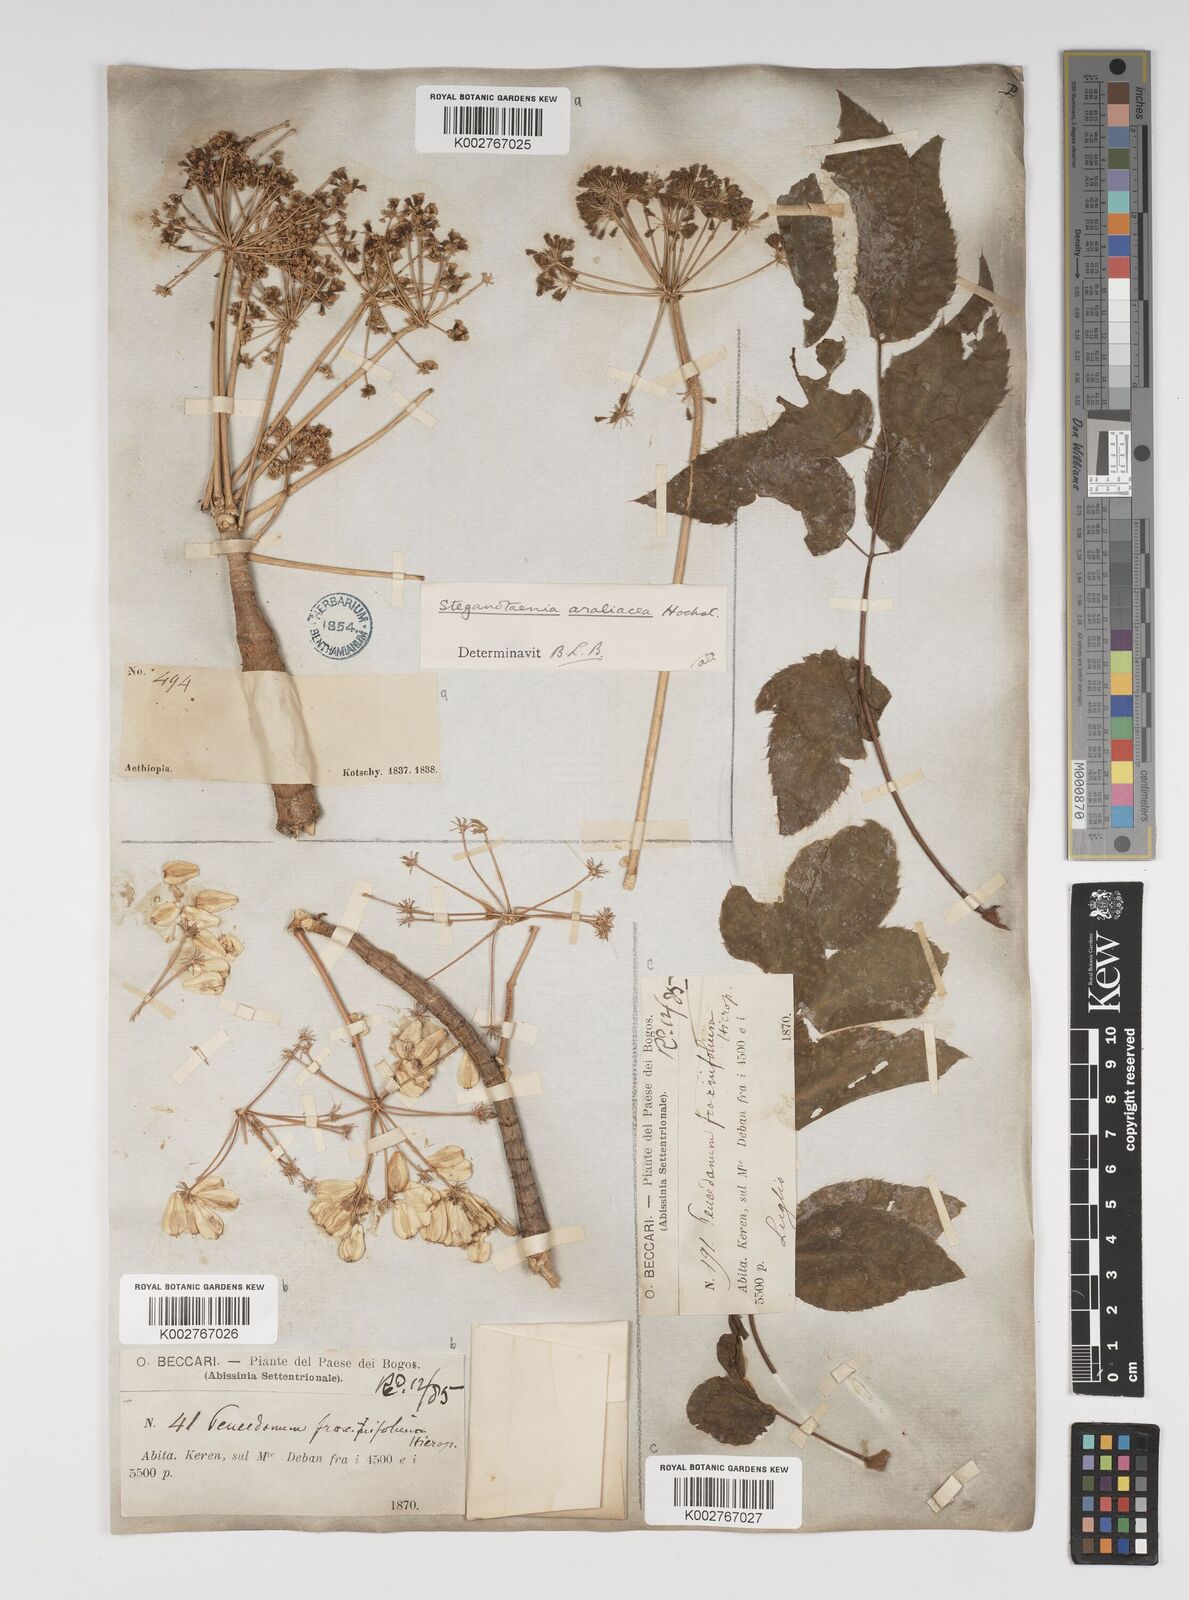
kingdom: Plantae
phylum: Tracheophyta
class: Magnoliopsida
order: Apiales
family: Apiaceae
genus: Steganotaenia
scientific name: Steganotaenia araliacea
